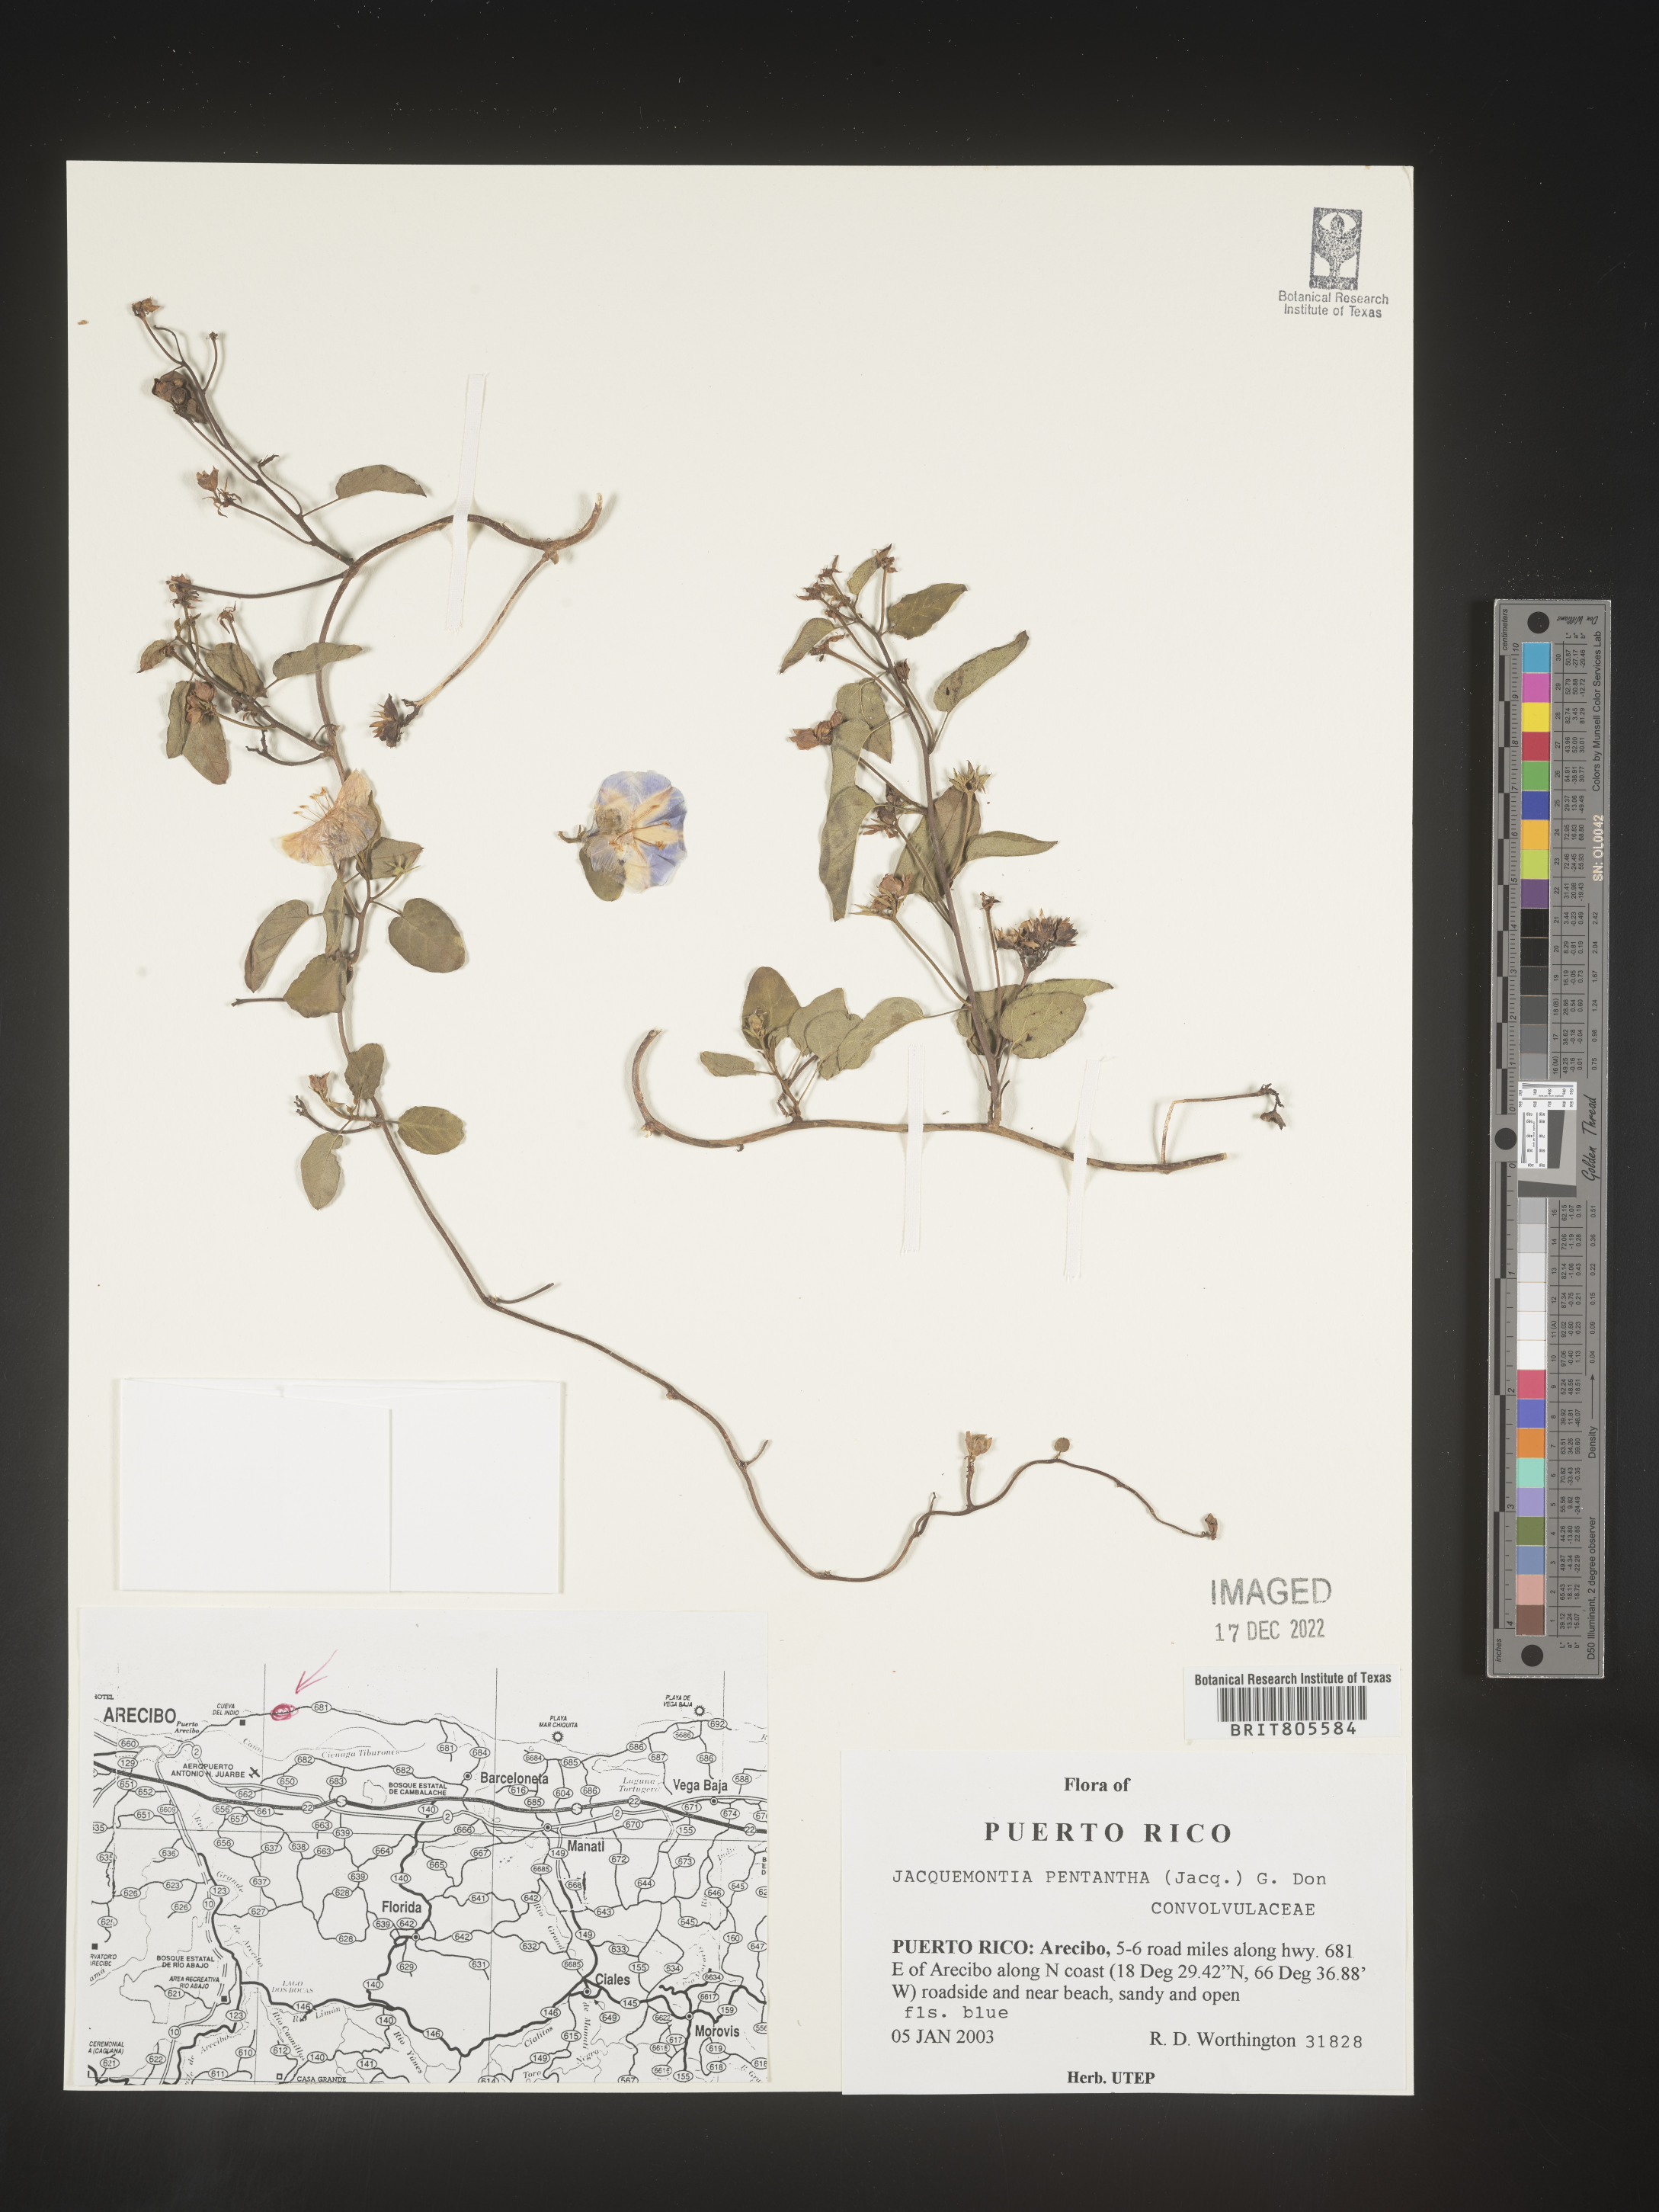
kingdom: Plantae
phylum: Tracheophyta
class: Magnoliopsida
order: Solanales
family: Convolvulaceae
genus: Jacquemontia
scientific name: Jacquemontia
